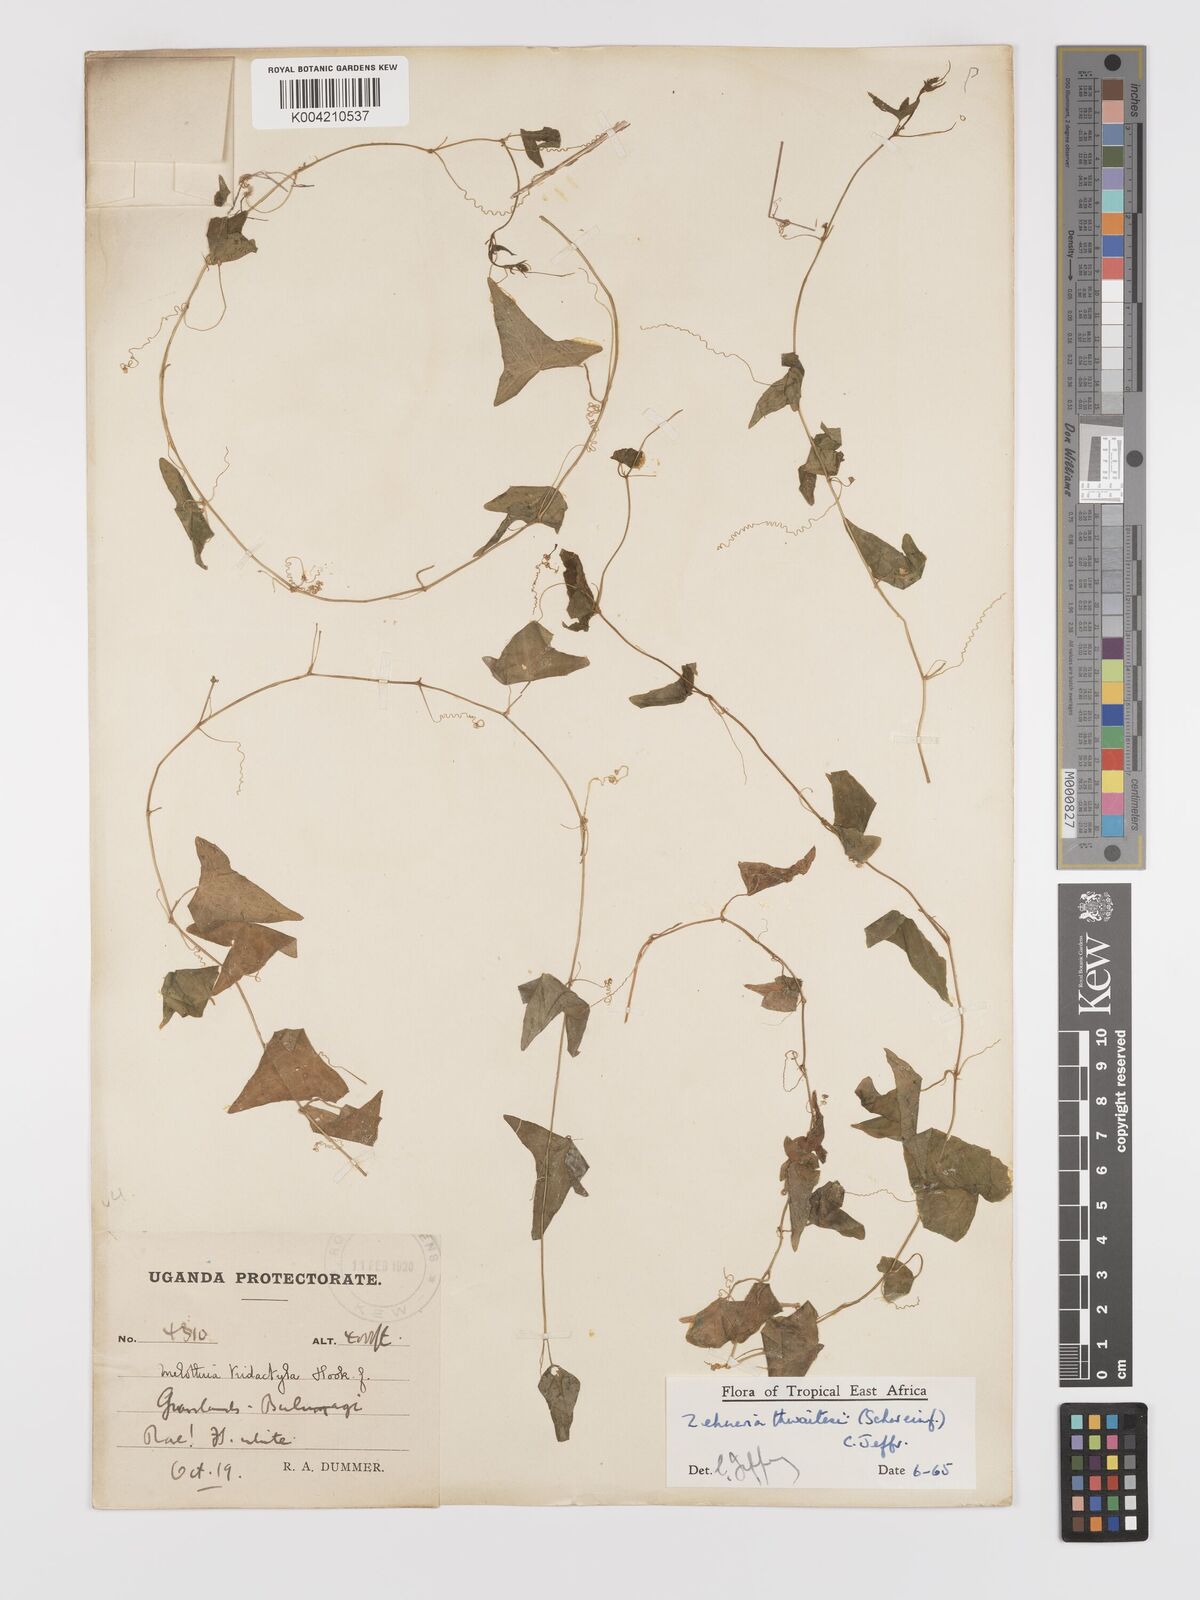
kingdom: Plantae
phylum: Tracheophyta
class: Magnoliopsida
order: Cucurbitales
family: Cucurbitaceae
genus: Zehneria
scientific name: Zehneria thwaitesii
